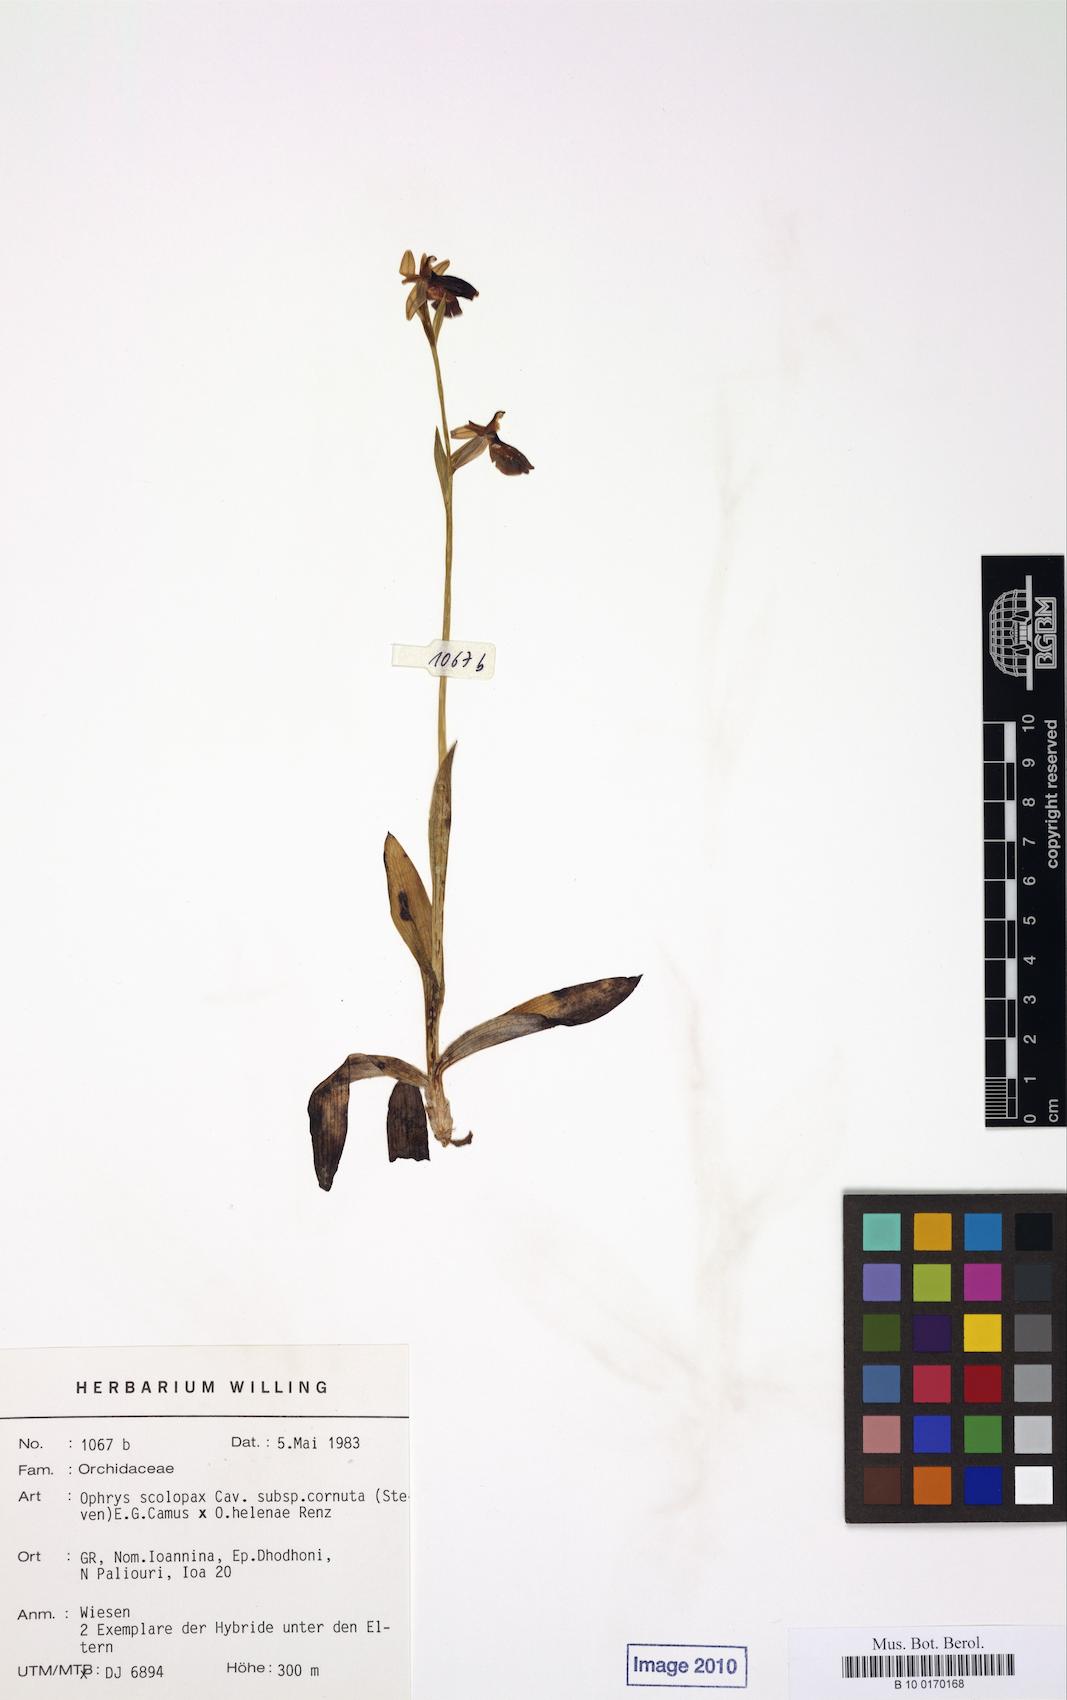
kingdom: Plantae
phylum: Tracheophyta
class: Liliopsida
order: Asparagales
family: Orchidaceae
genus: Ophrys
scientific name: Ophrys scolopax
